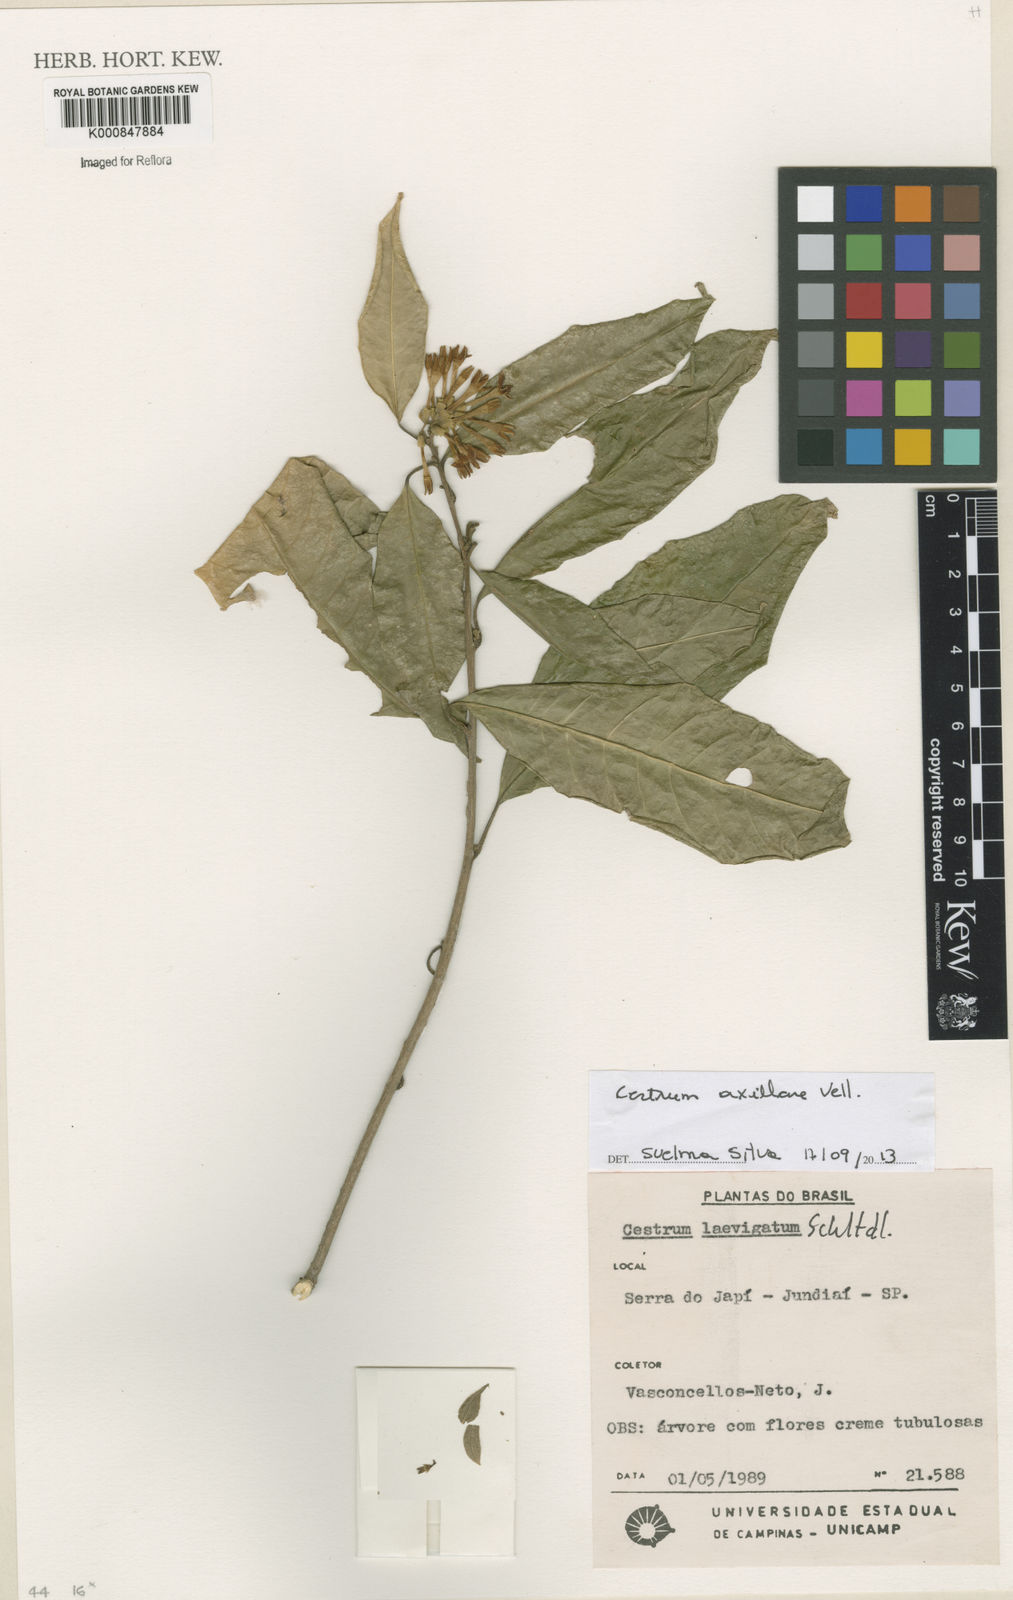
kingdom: Plantae
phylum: Tracheophyta
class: Magnoliopsida
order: Solanales
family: Solanaceae
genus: Cestrum
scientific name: Cestrum laevigatum
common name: Inkberry
